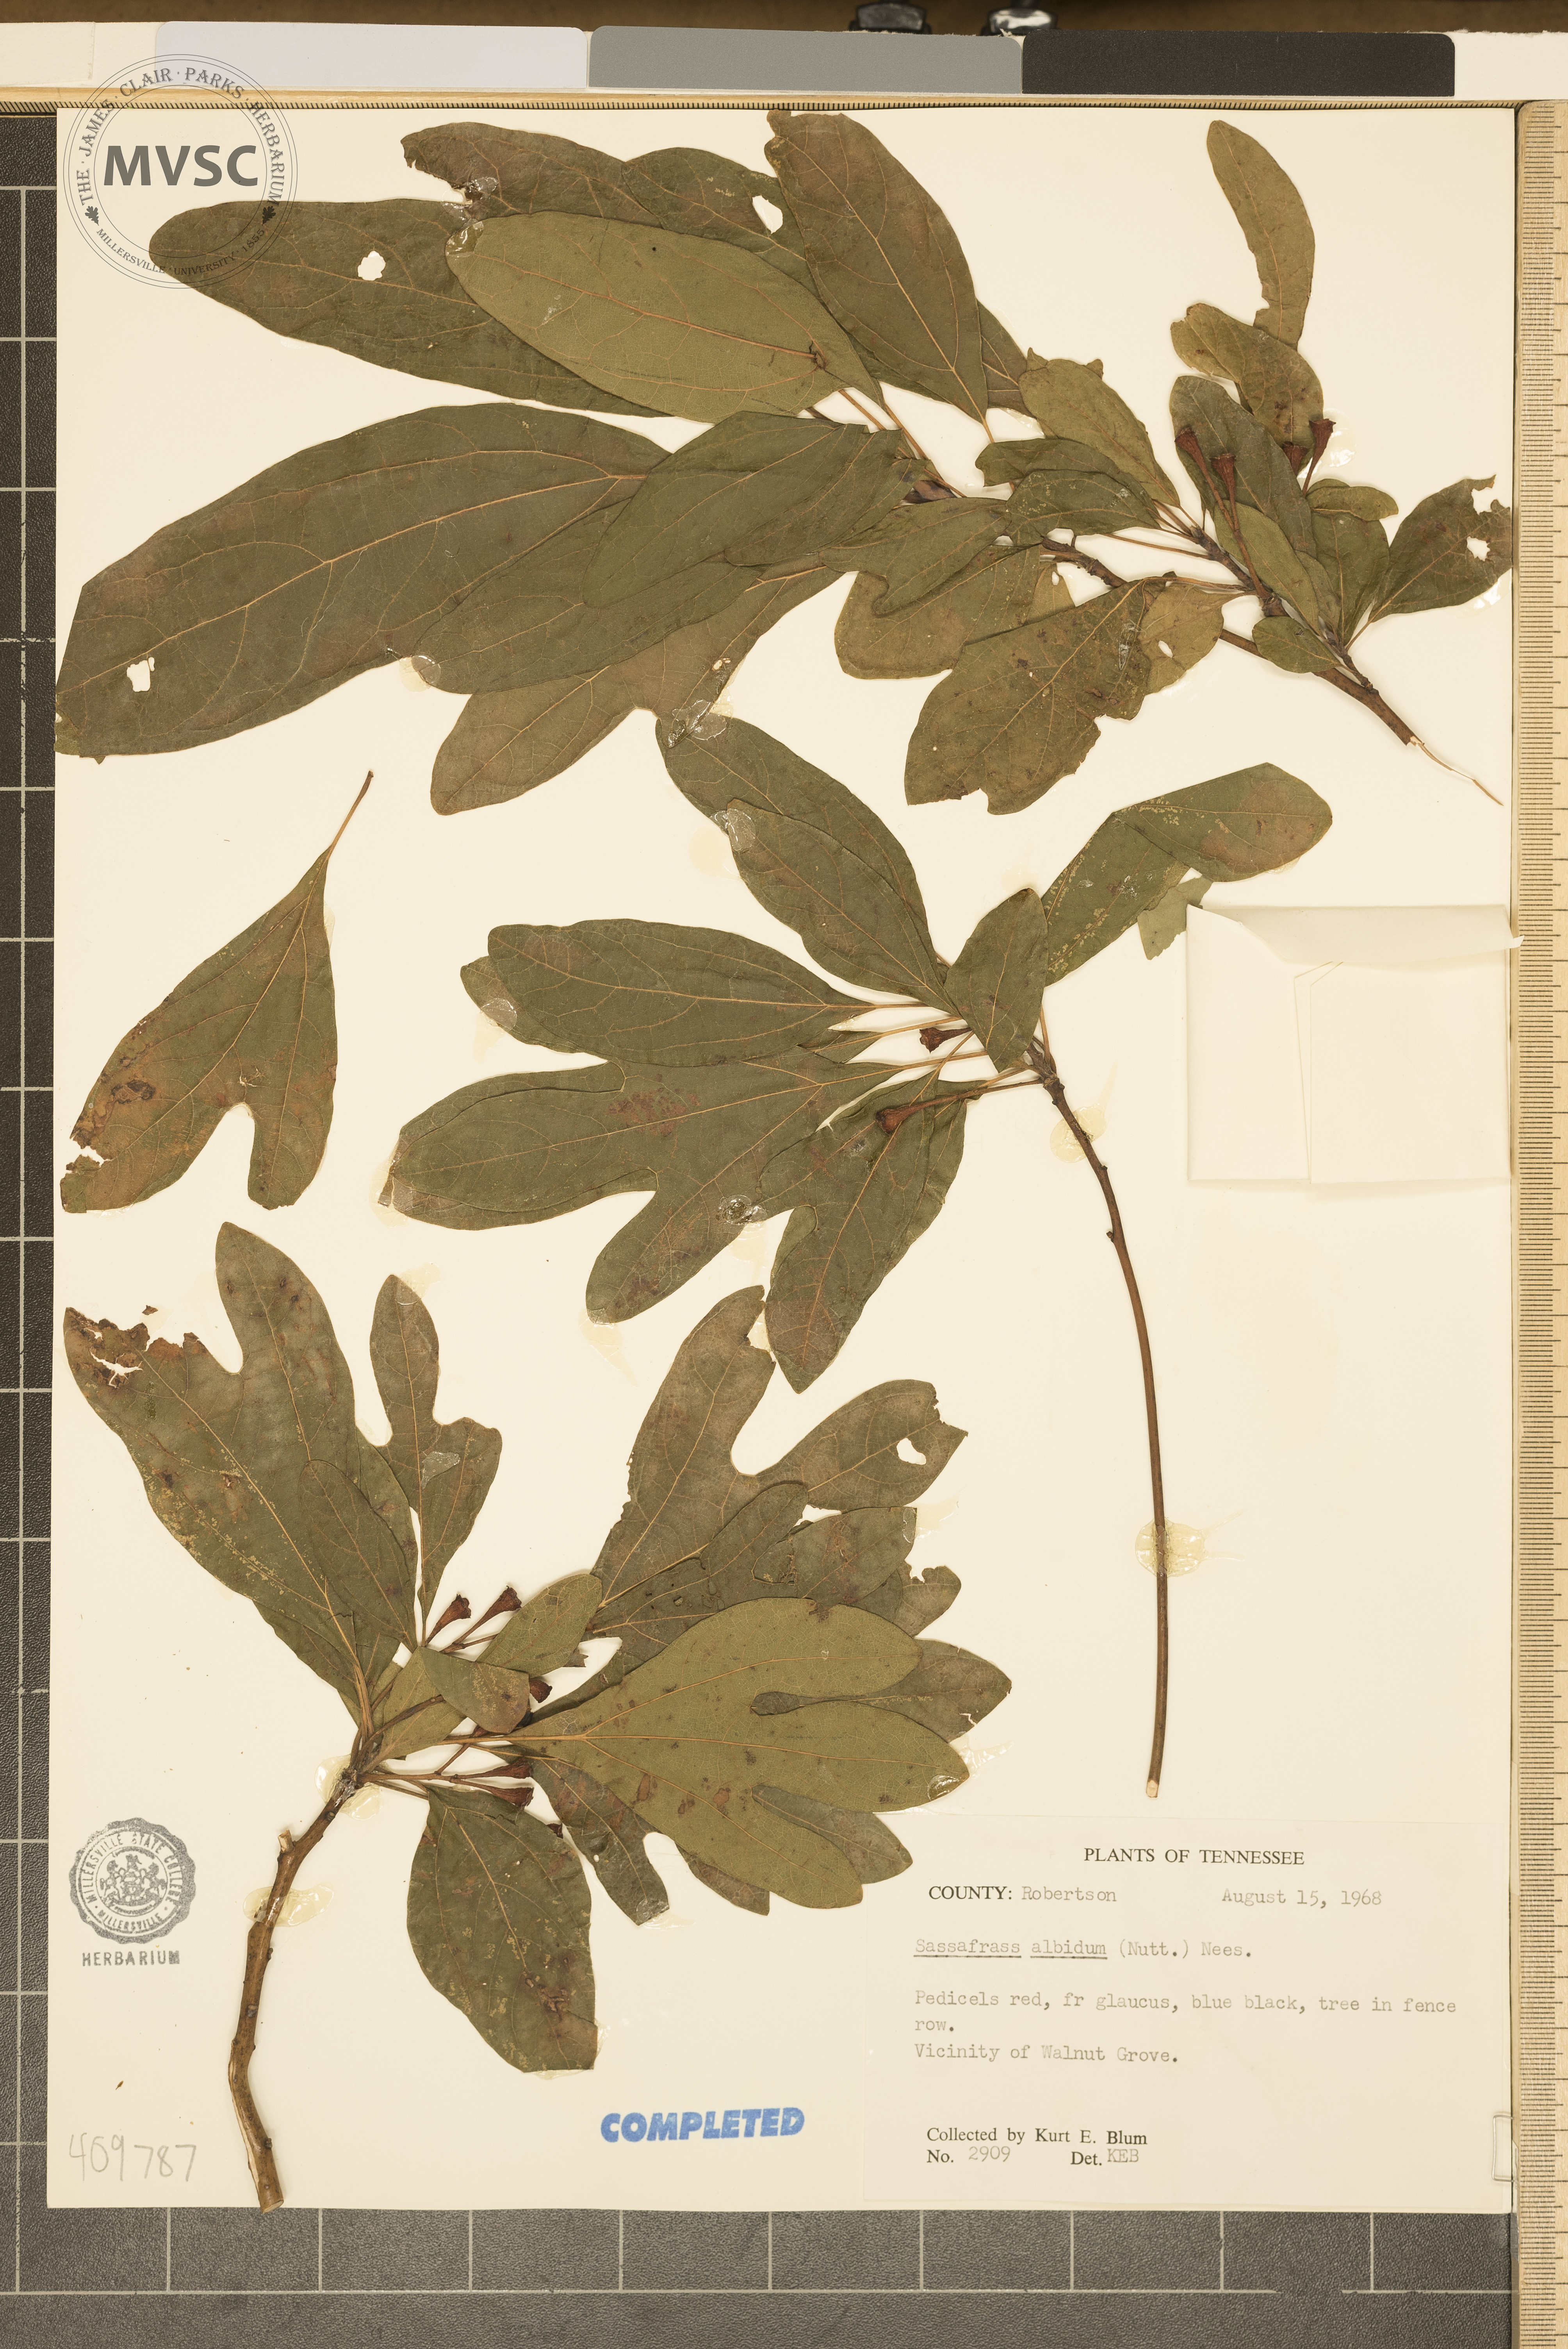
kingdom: Plantae
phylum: Tracheophyta
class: Magnoliopsida
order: Laurales
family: Lauraceae
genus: Sassafras
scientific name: Sassafras albidum
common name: Sassafras
